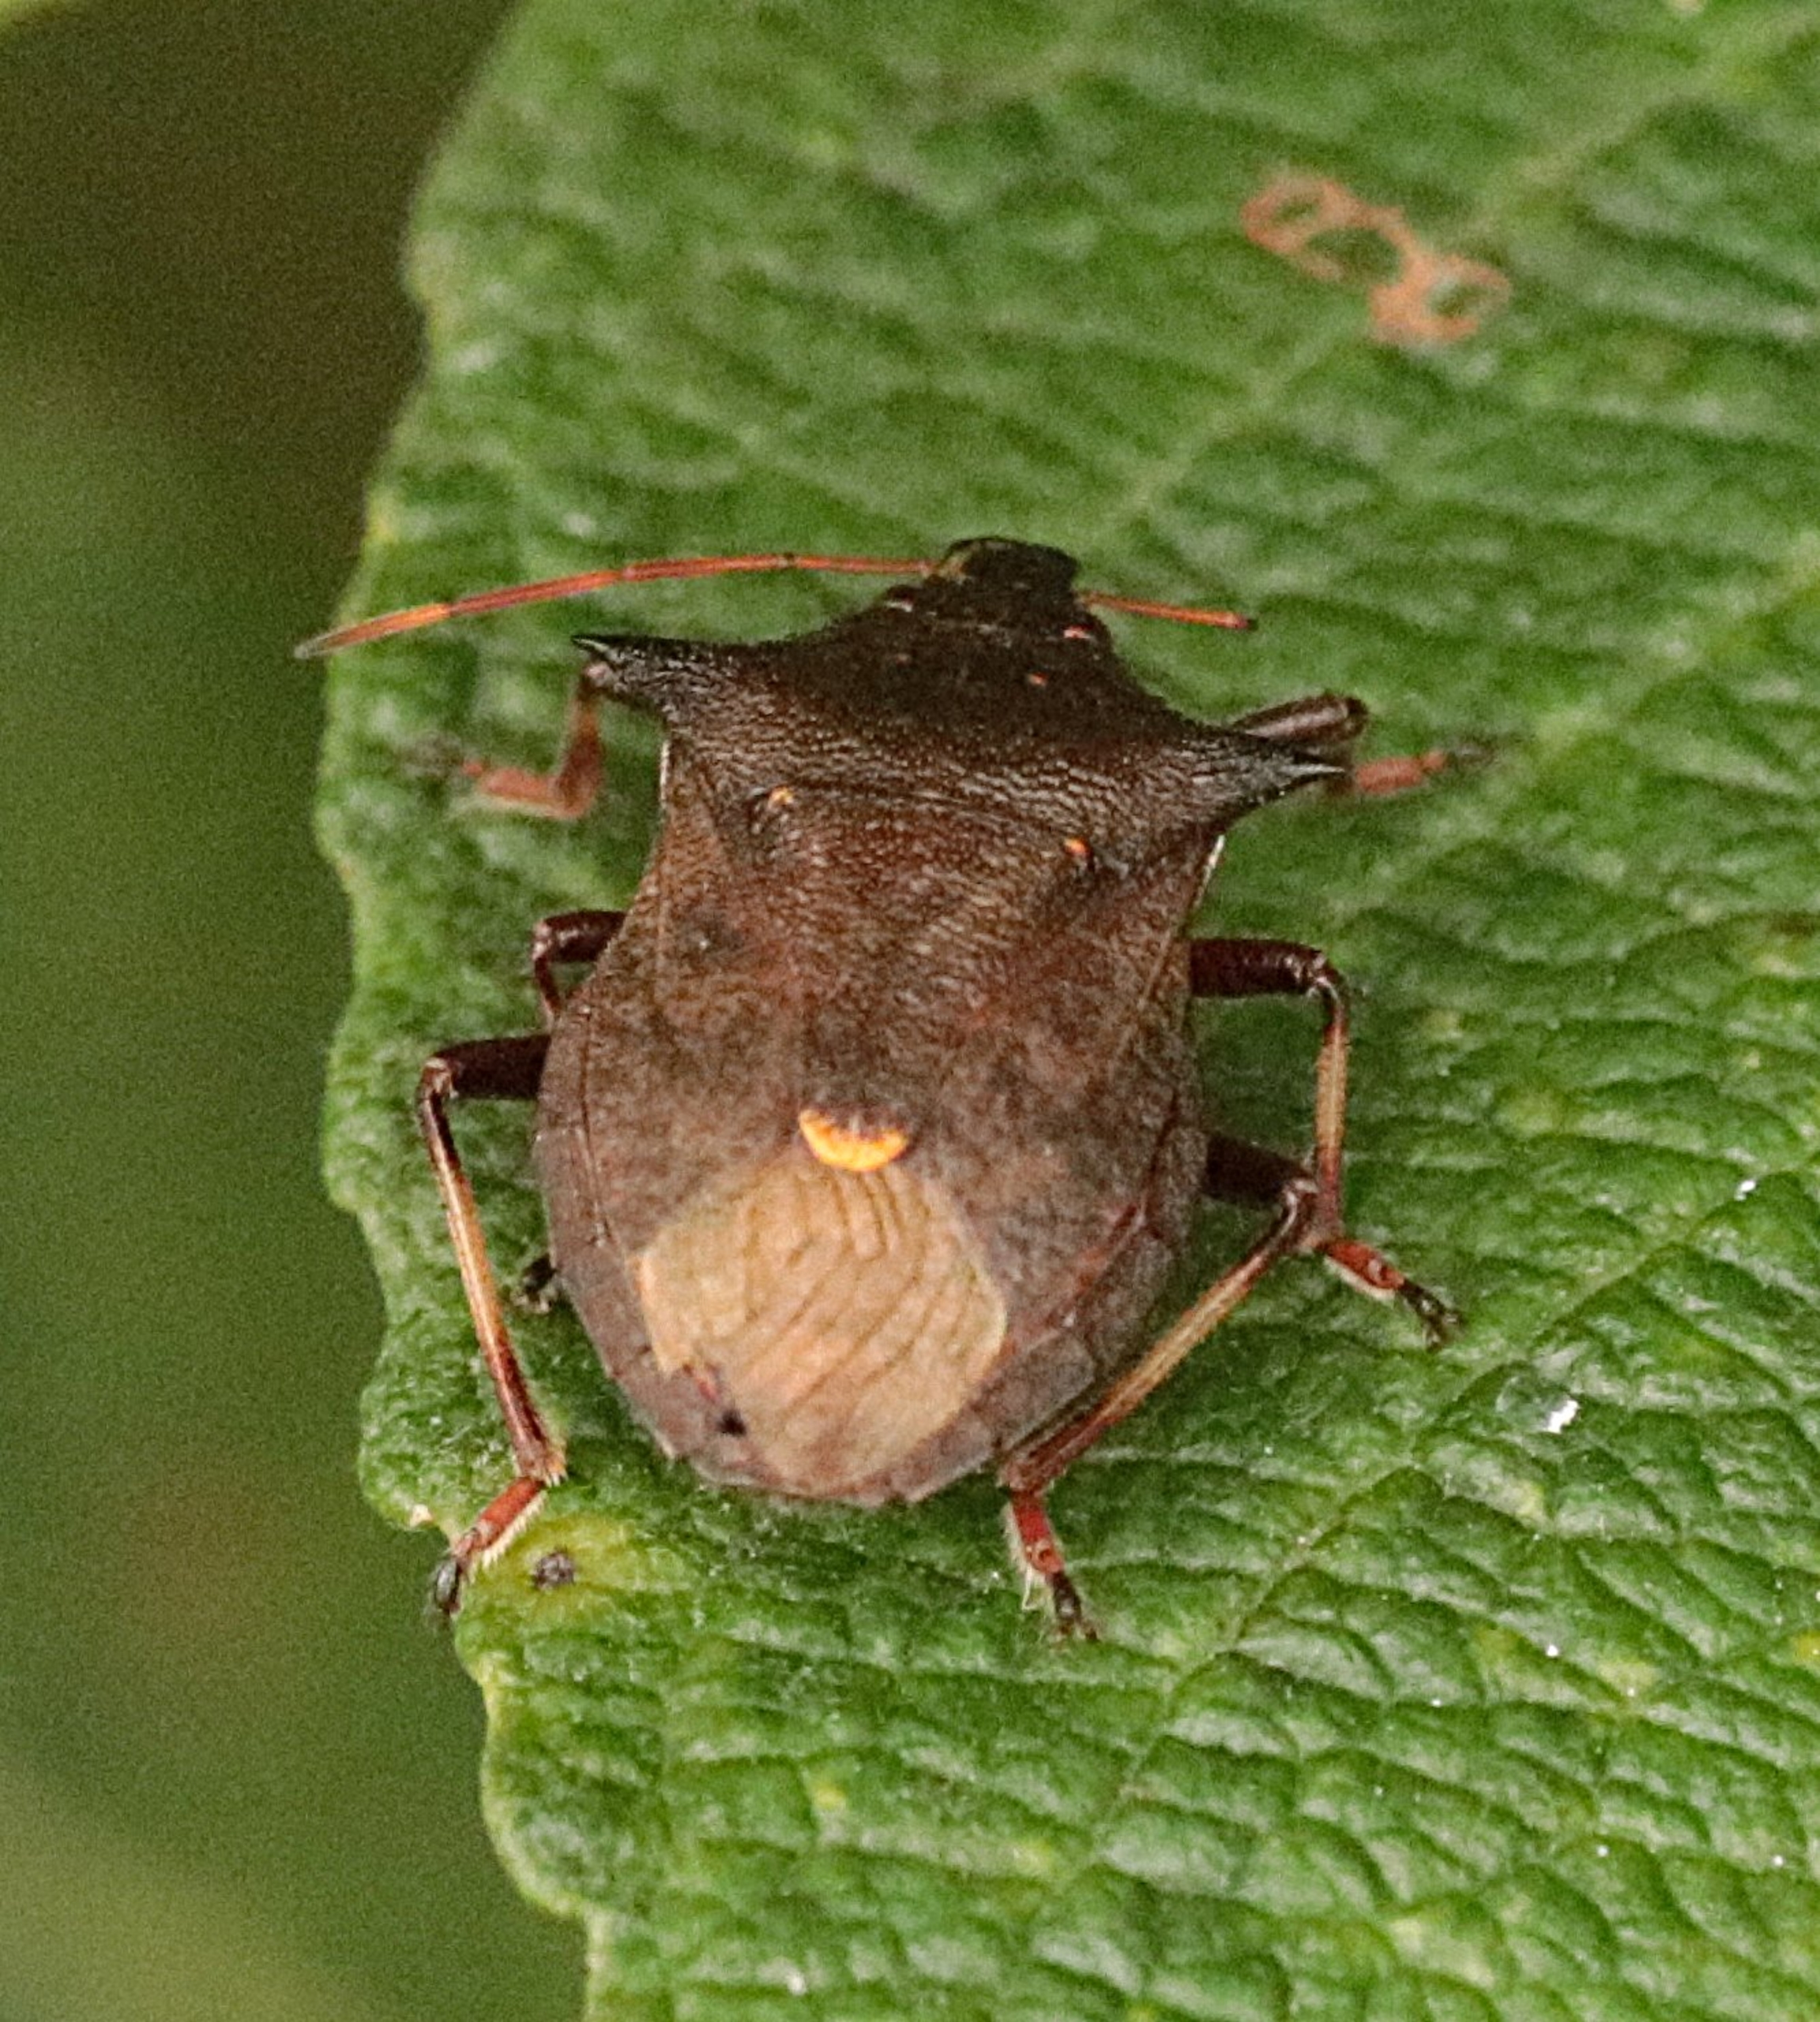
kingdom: Animalia
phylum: Arthropoda
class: Insecta
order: Hemiptera
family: Pentatomidae
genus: Picromerus
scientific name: Picromerus bidens
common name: Torntæge
